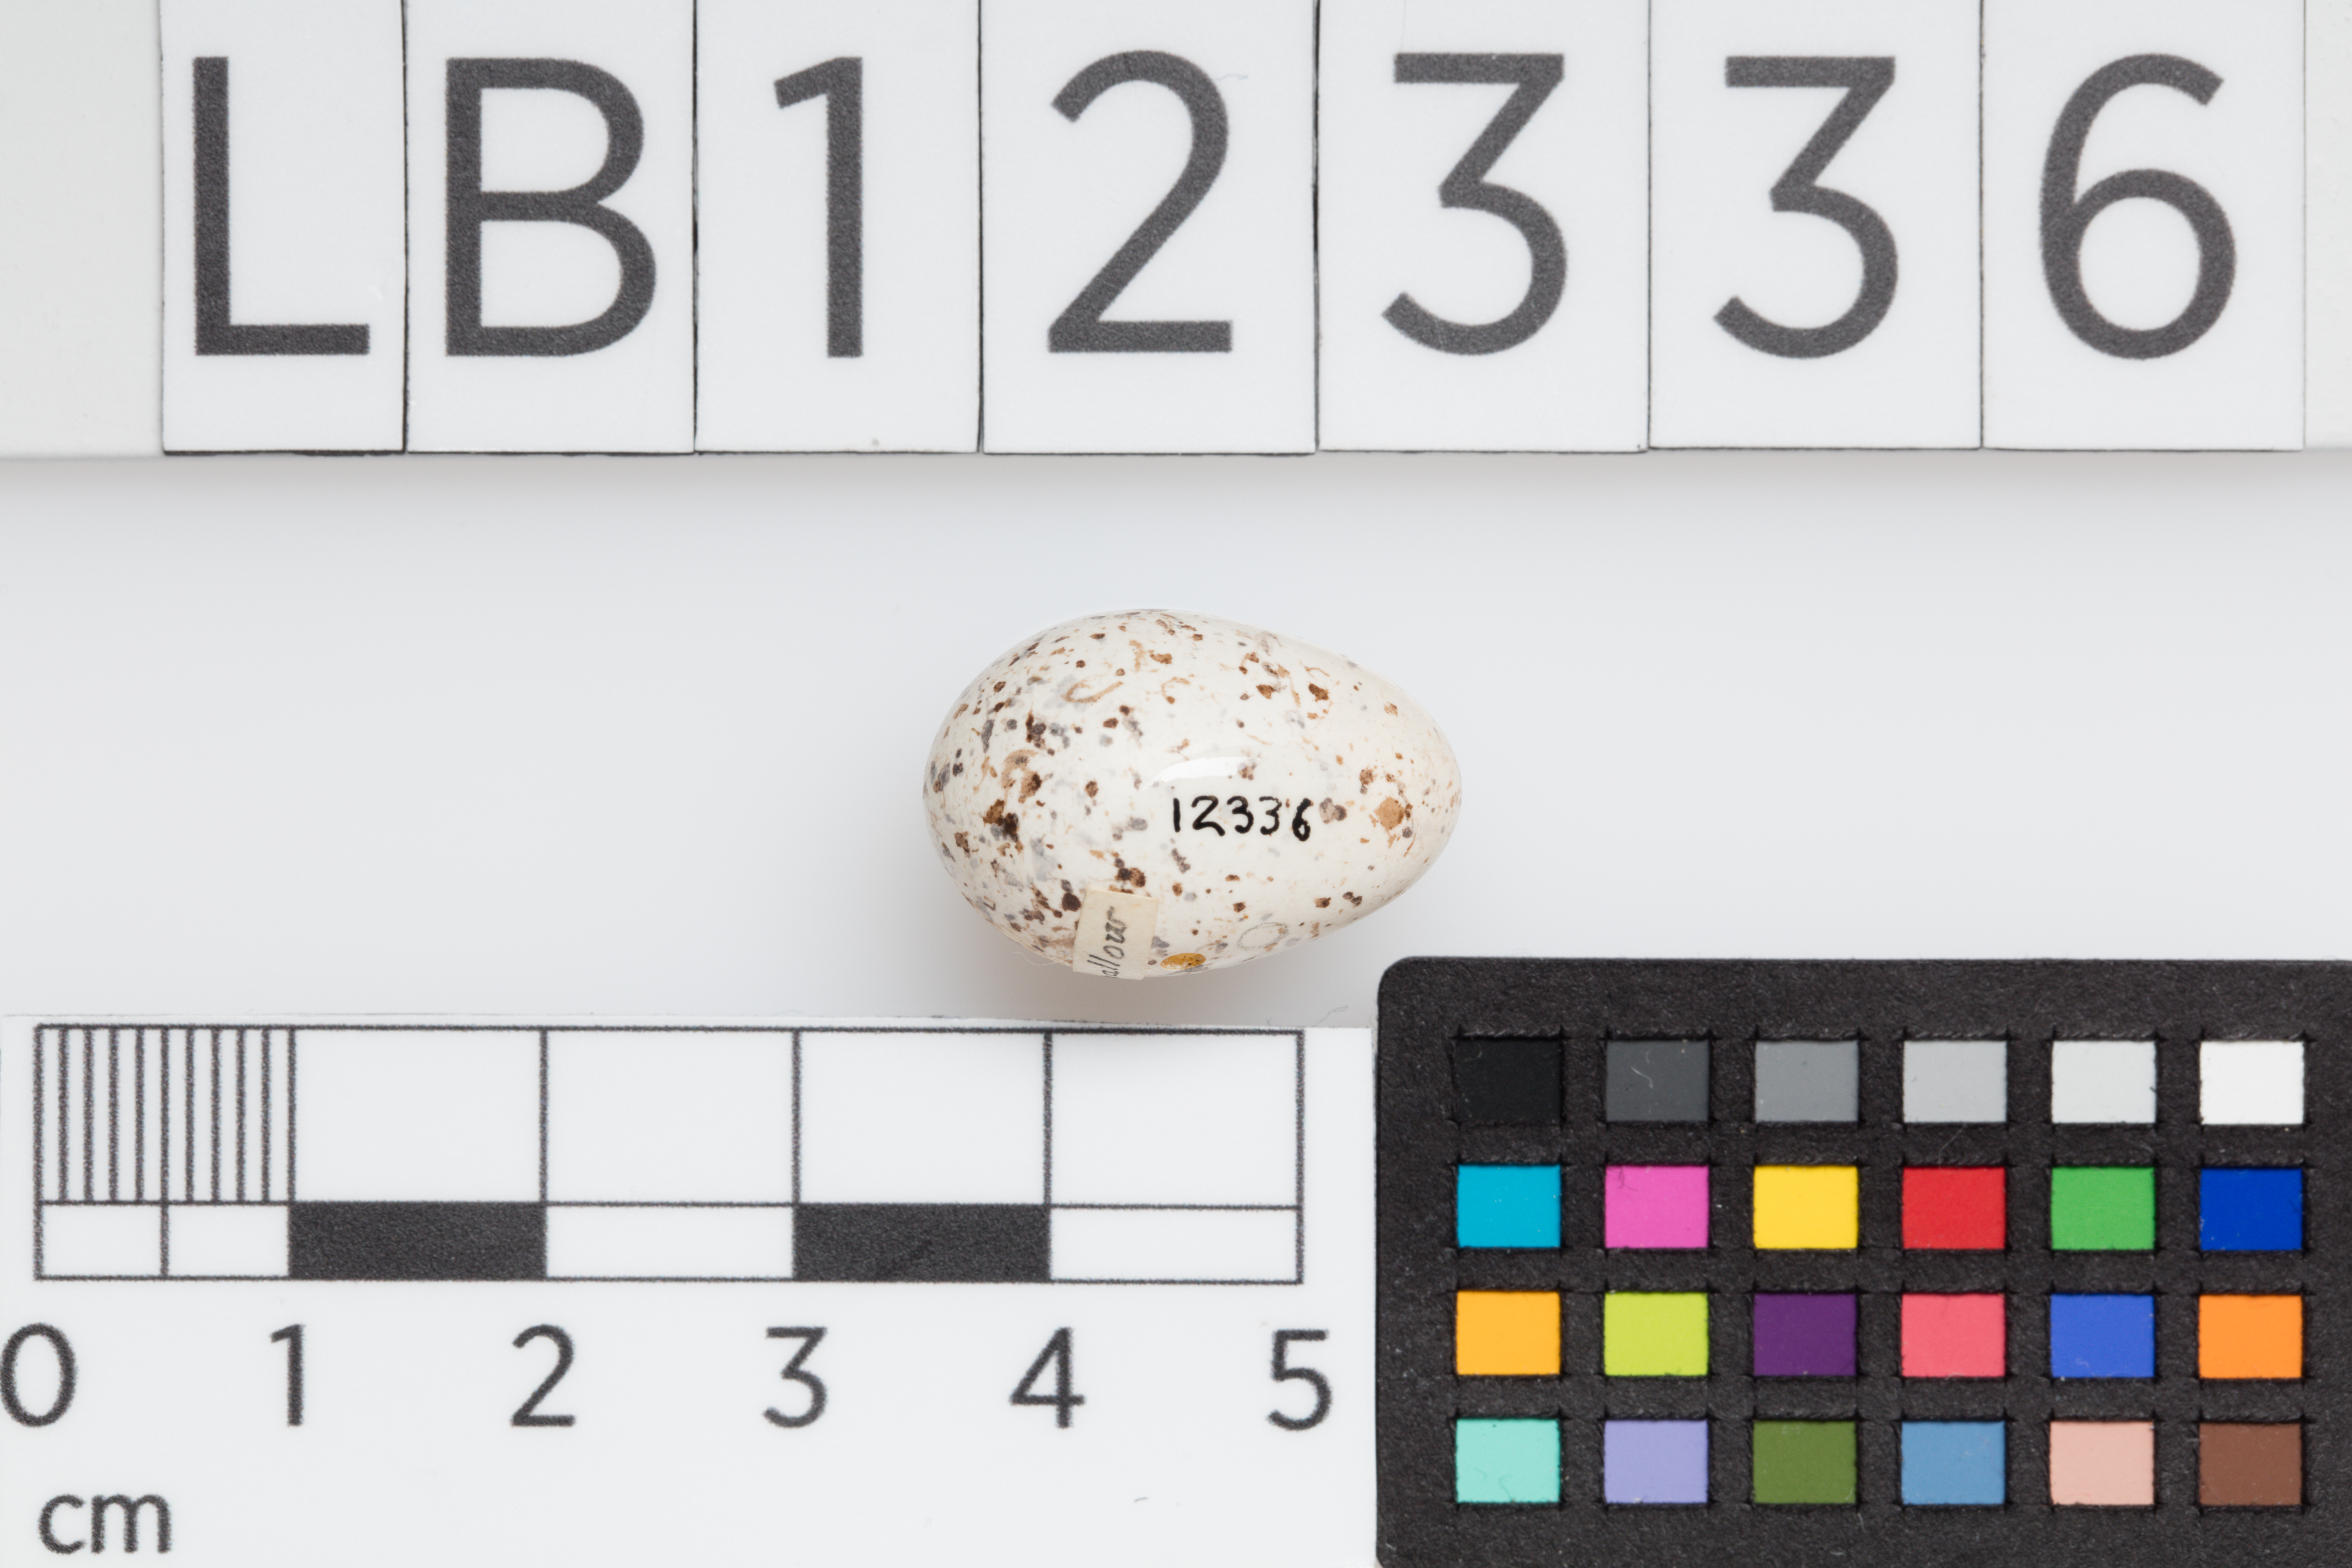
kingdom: Animalia
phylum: Chordata
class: Aves
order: Passeriformes
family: Hirundinidae
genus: Hirundo
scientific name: Hirundo rustica
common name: Barn swallow
